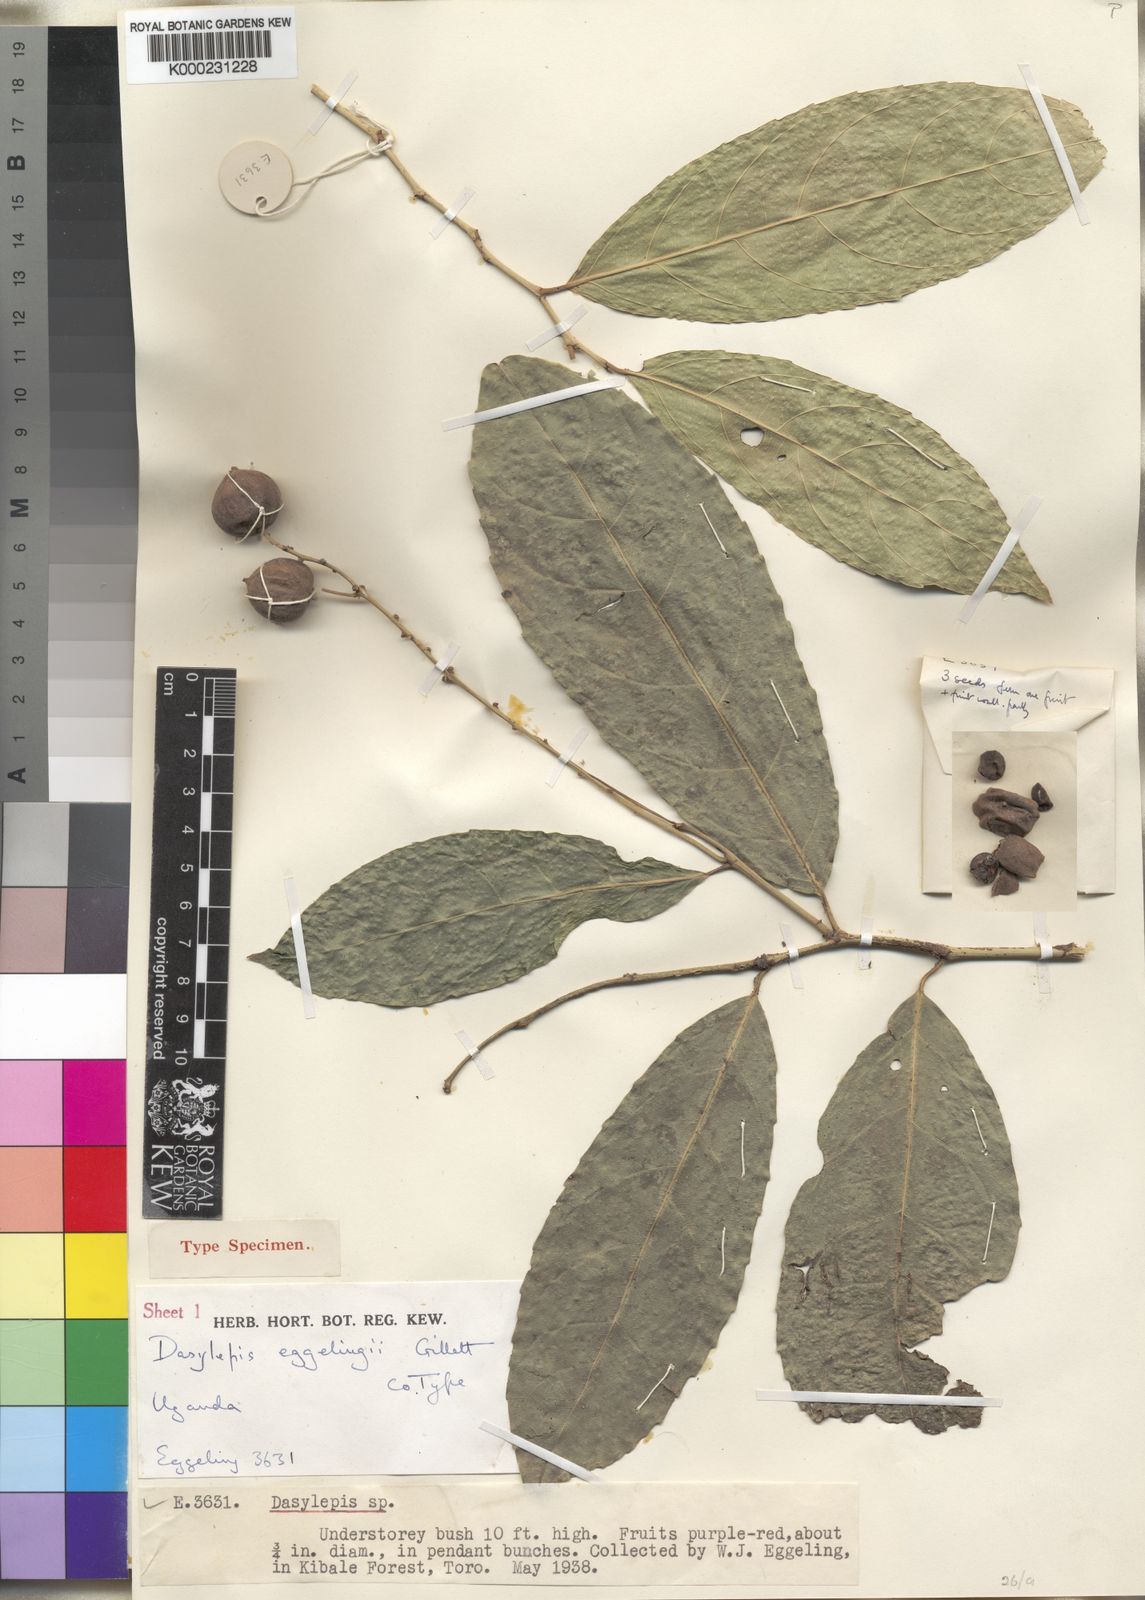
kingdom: Plantae
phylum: Tracheophyta
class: Magnoliopsida
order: Malpighiales
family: Achariaceae
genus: Dasylepis
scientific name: Dasylepis eggelingii
